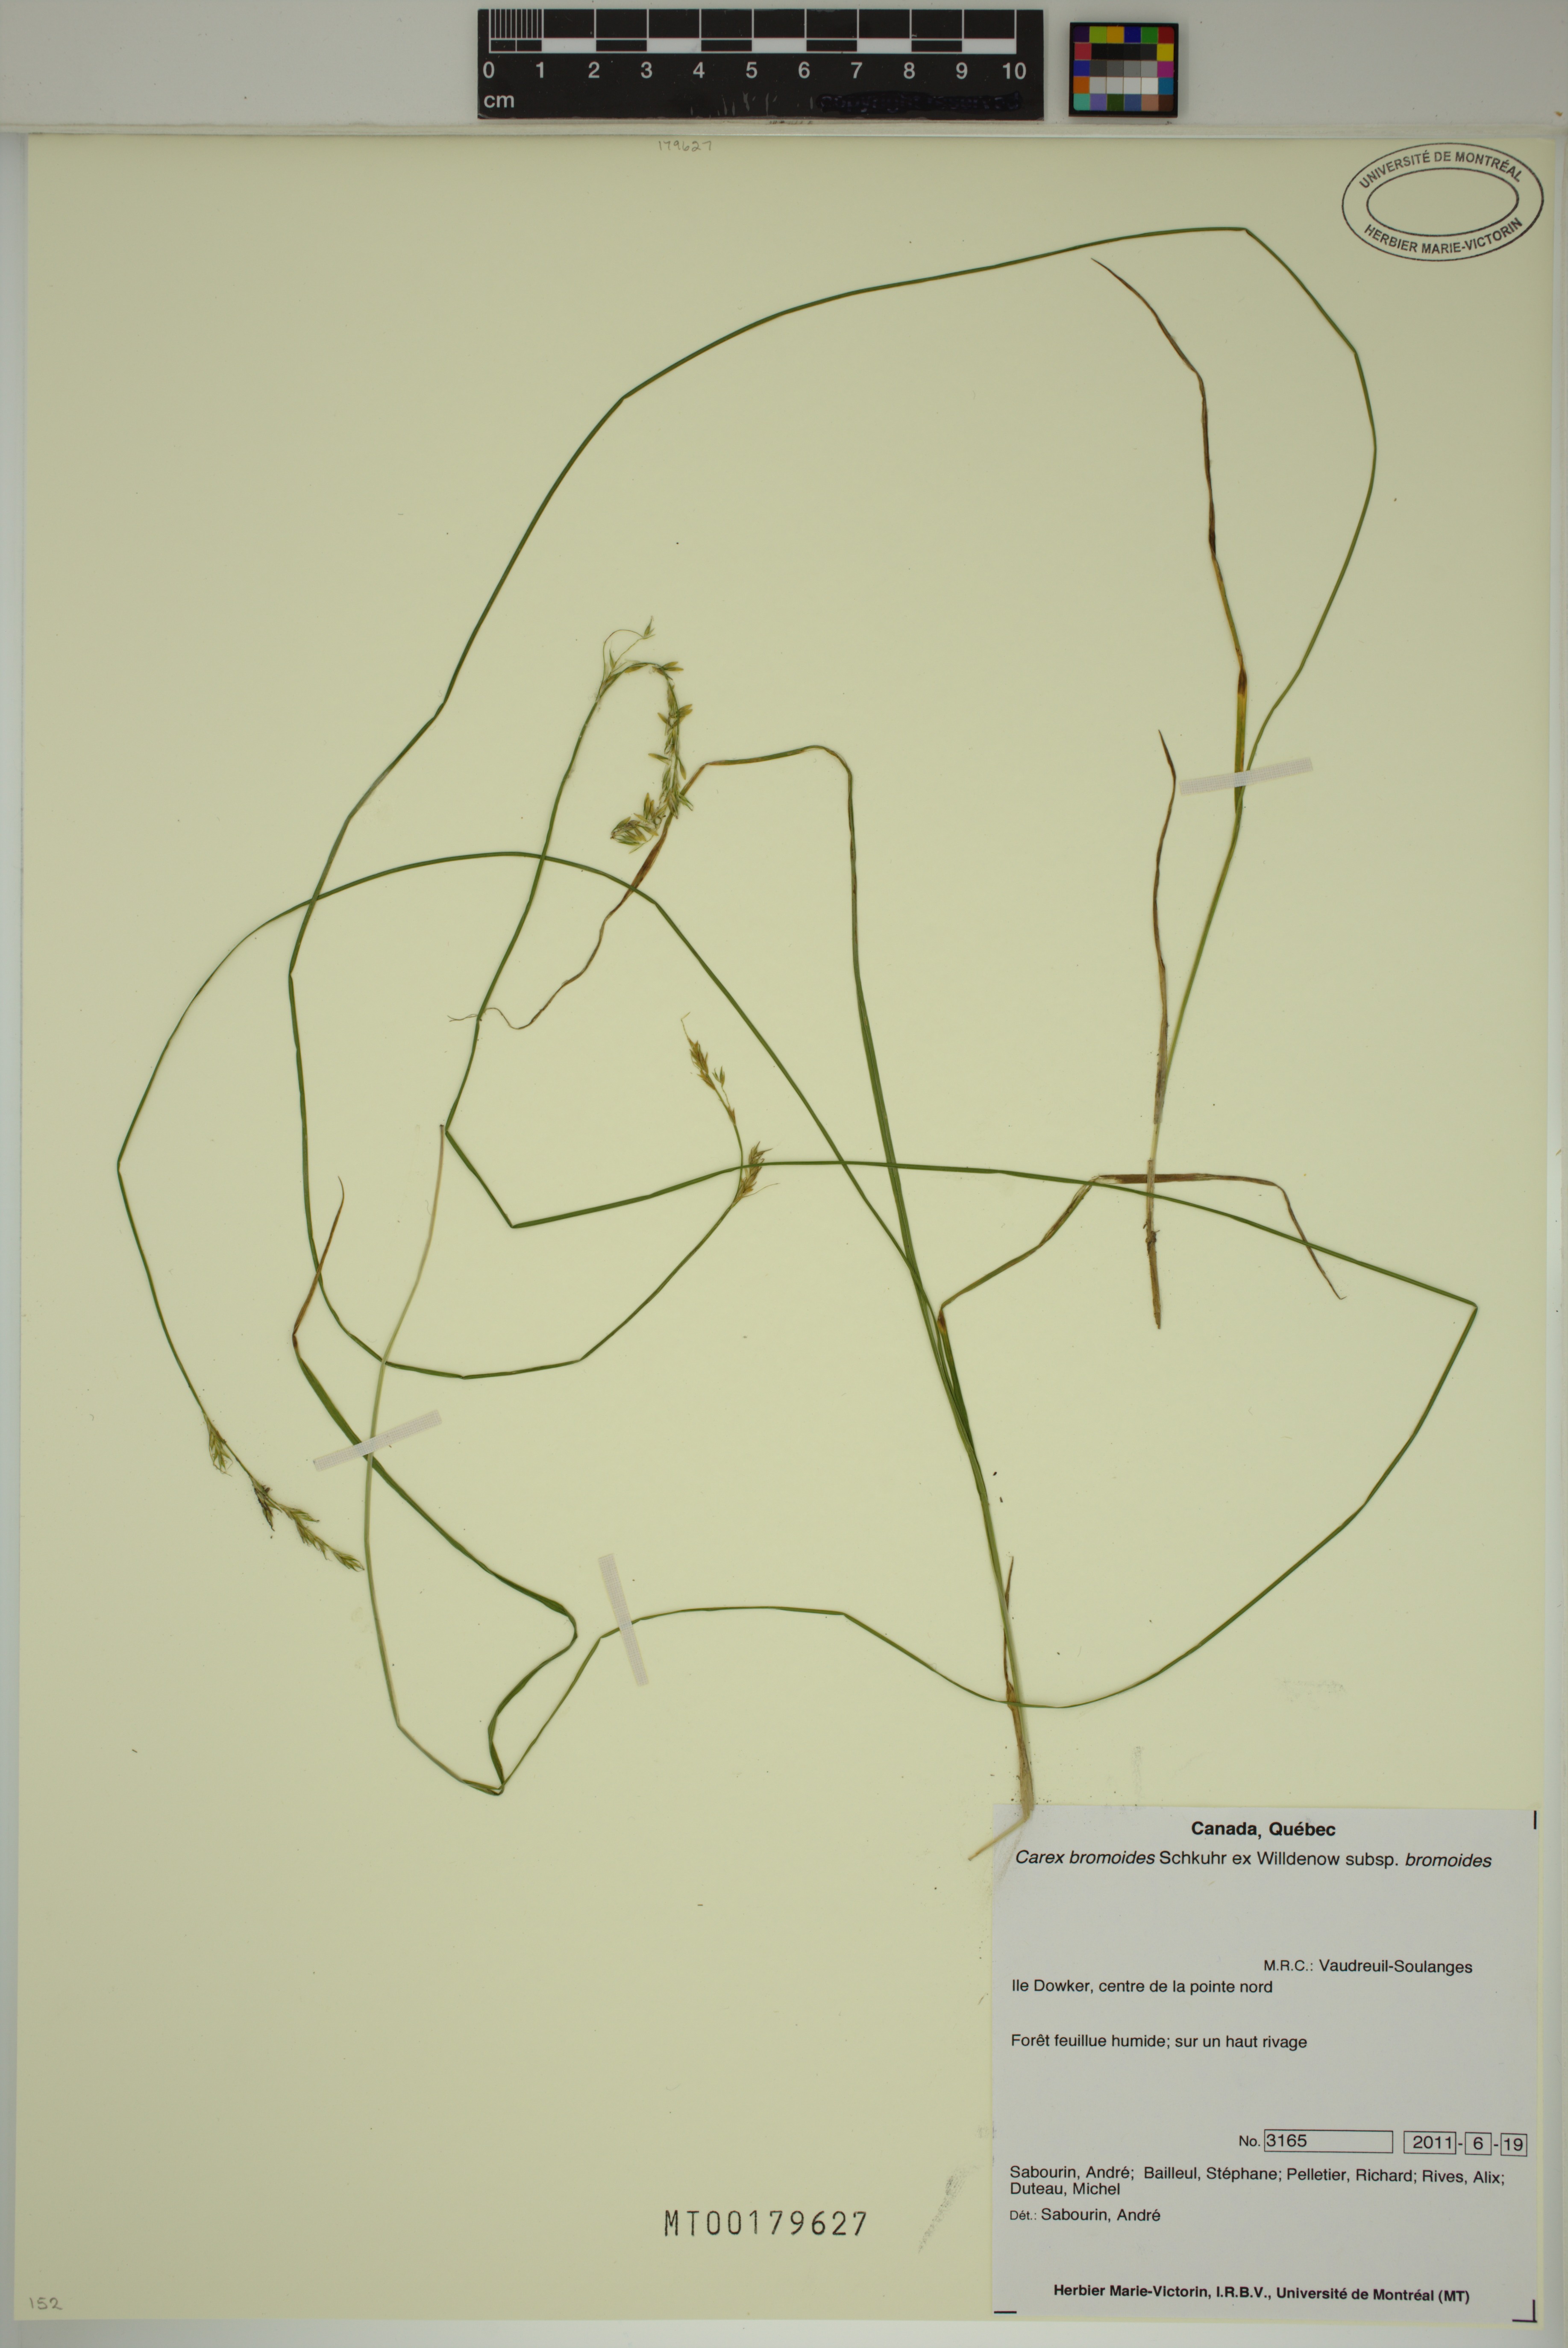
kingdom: Plantae
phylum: Tracheophyta
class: Liliopsida
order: Poales
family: Cyperaceae
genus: Carex
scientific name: Carex bromoides
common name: Brome hummock sedge
